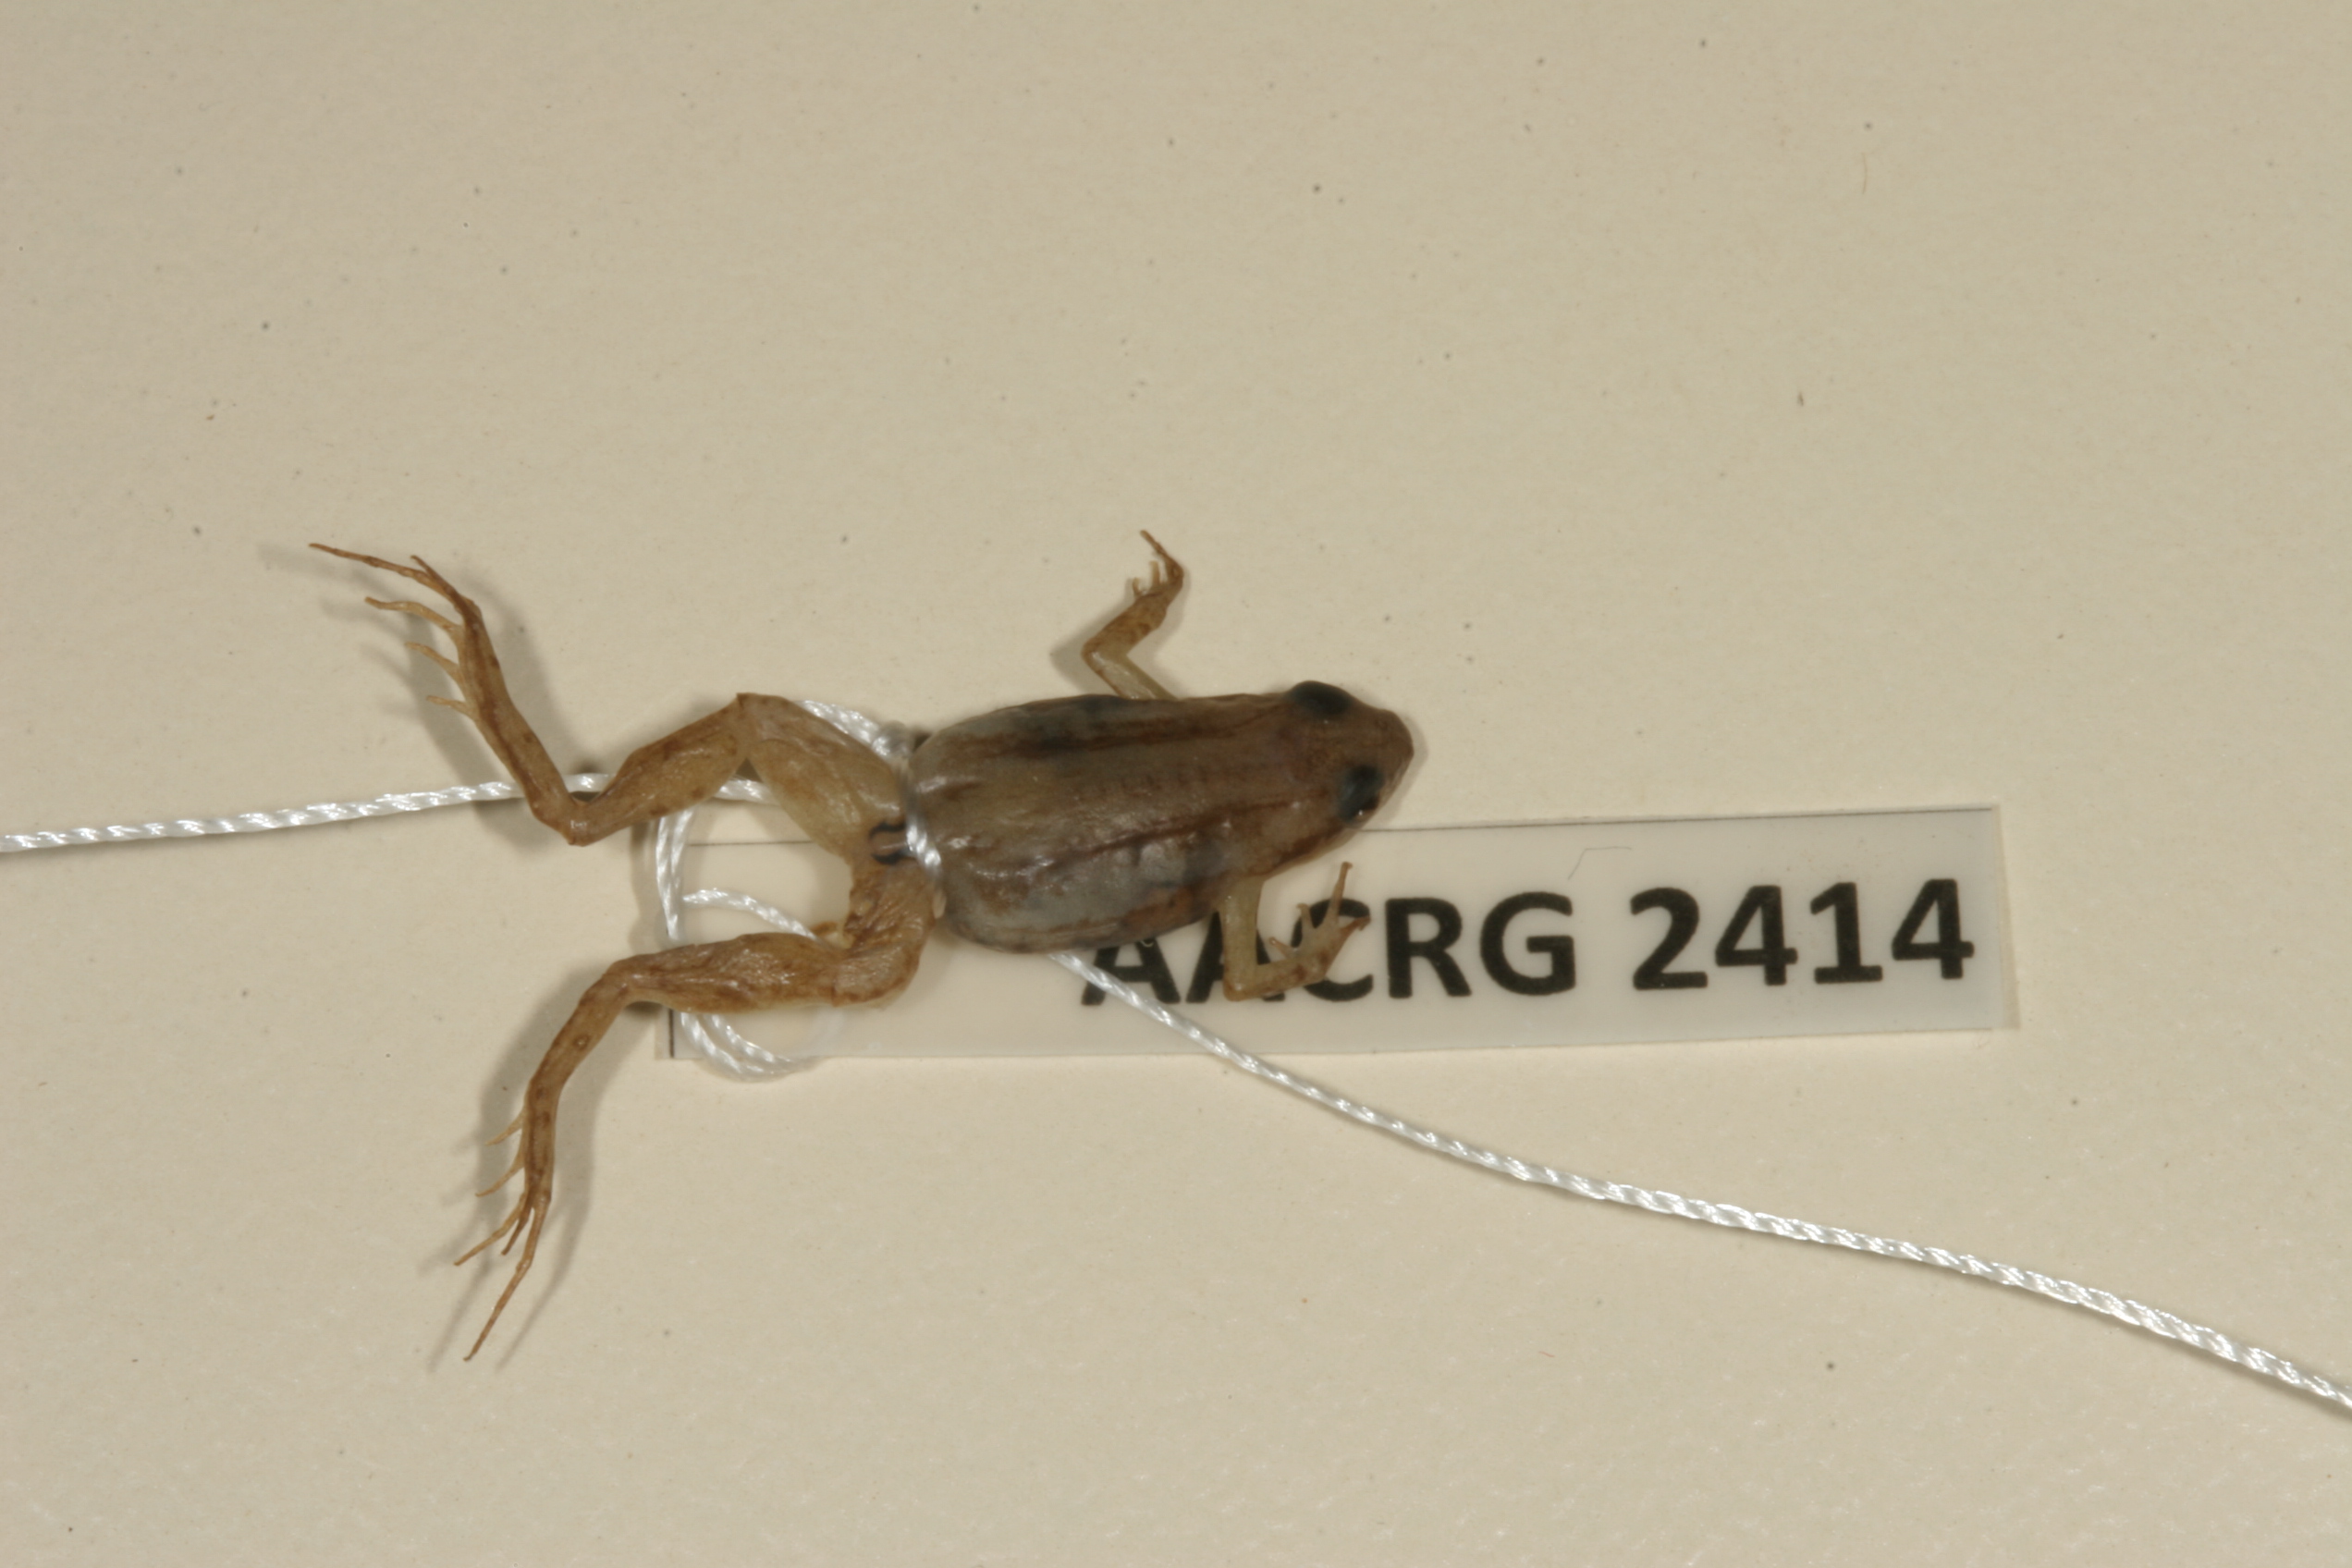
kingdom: Animalia
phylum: Chordata
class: Amphibia
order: Anura
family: Pyxicephalidae
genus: Cacosternum
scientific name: Cacosternum boettgeri
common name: Boettger's frog
